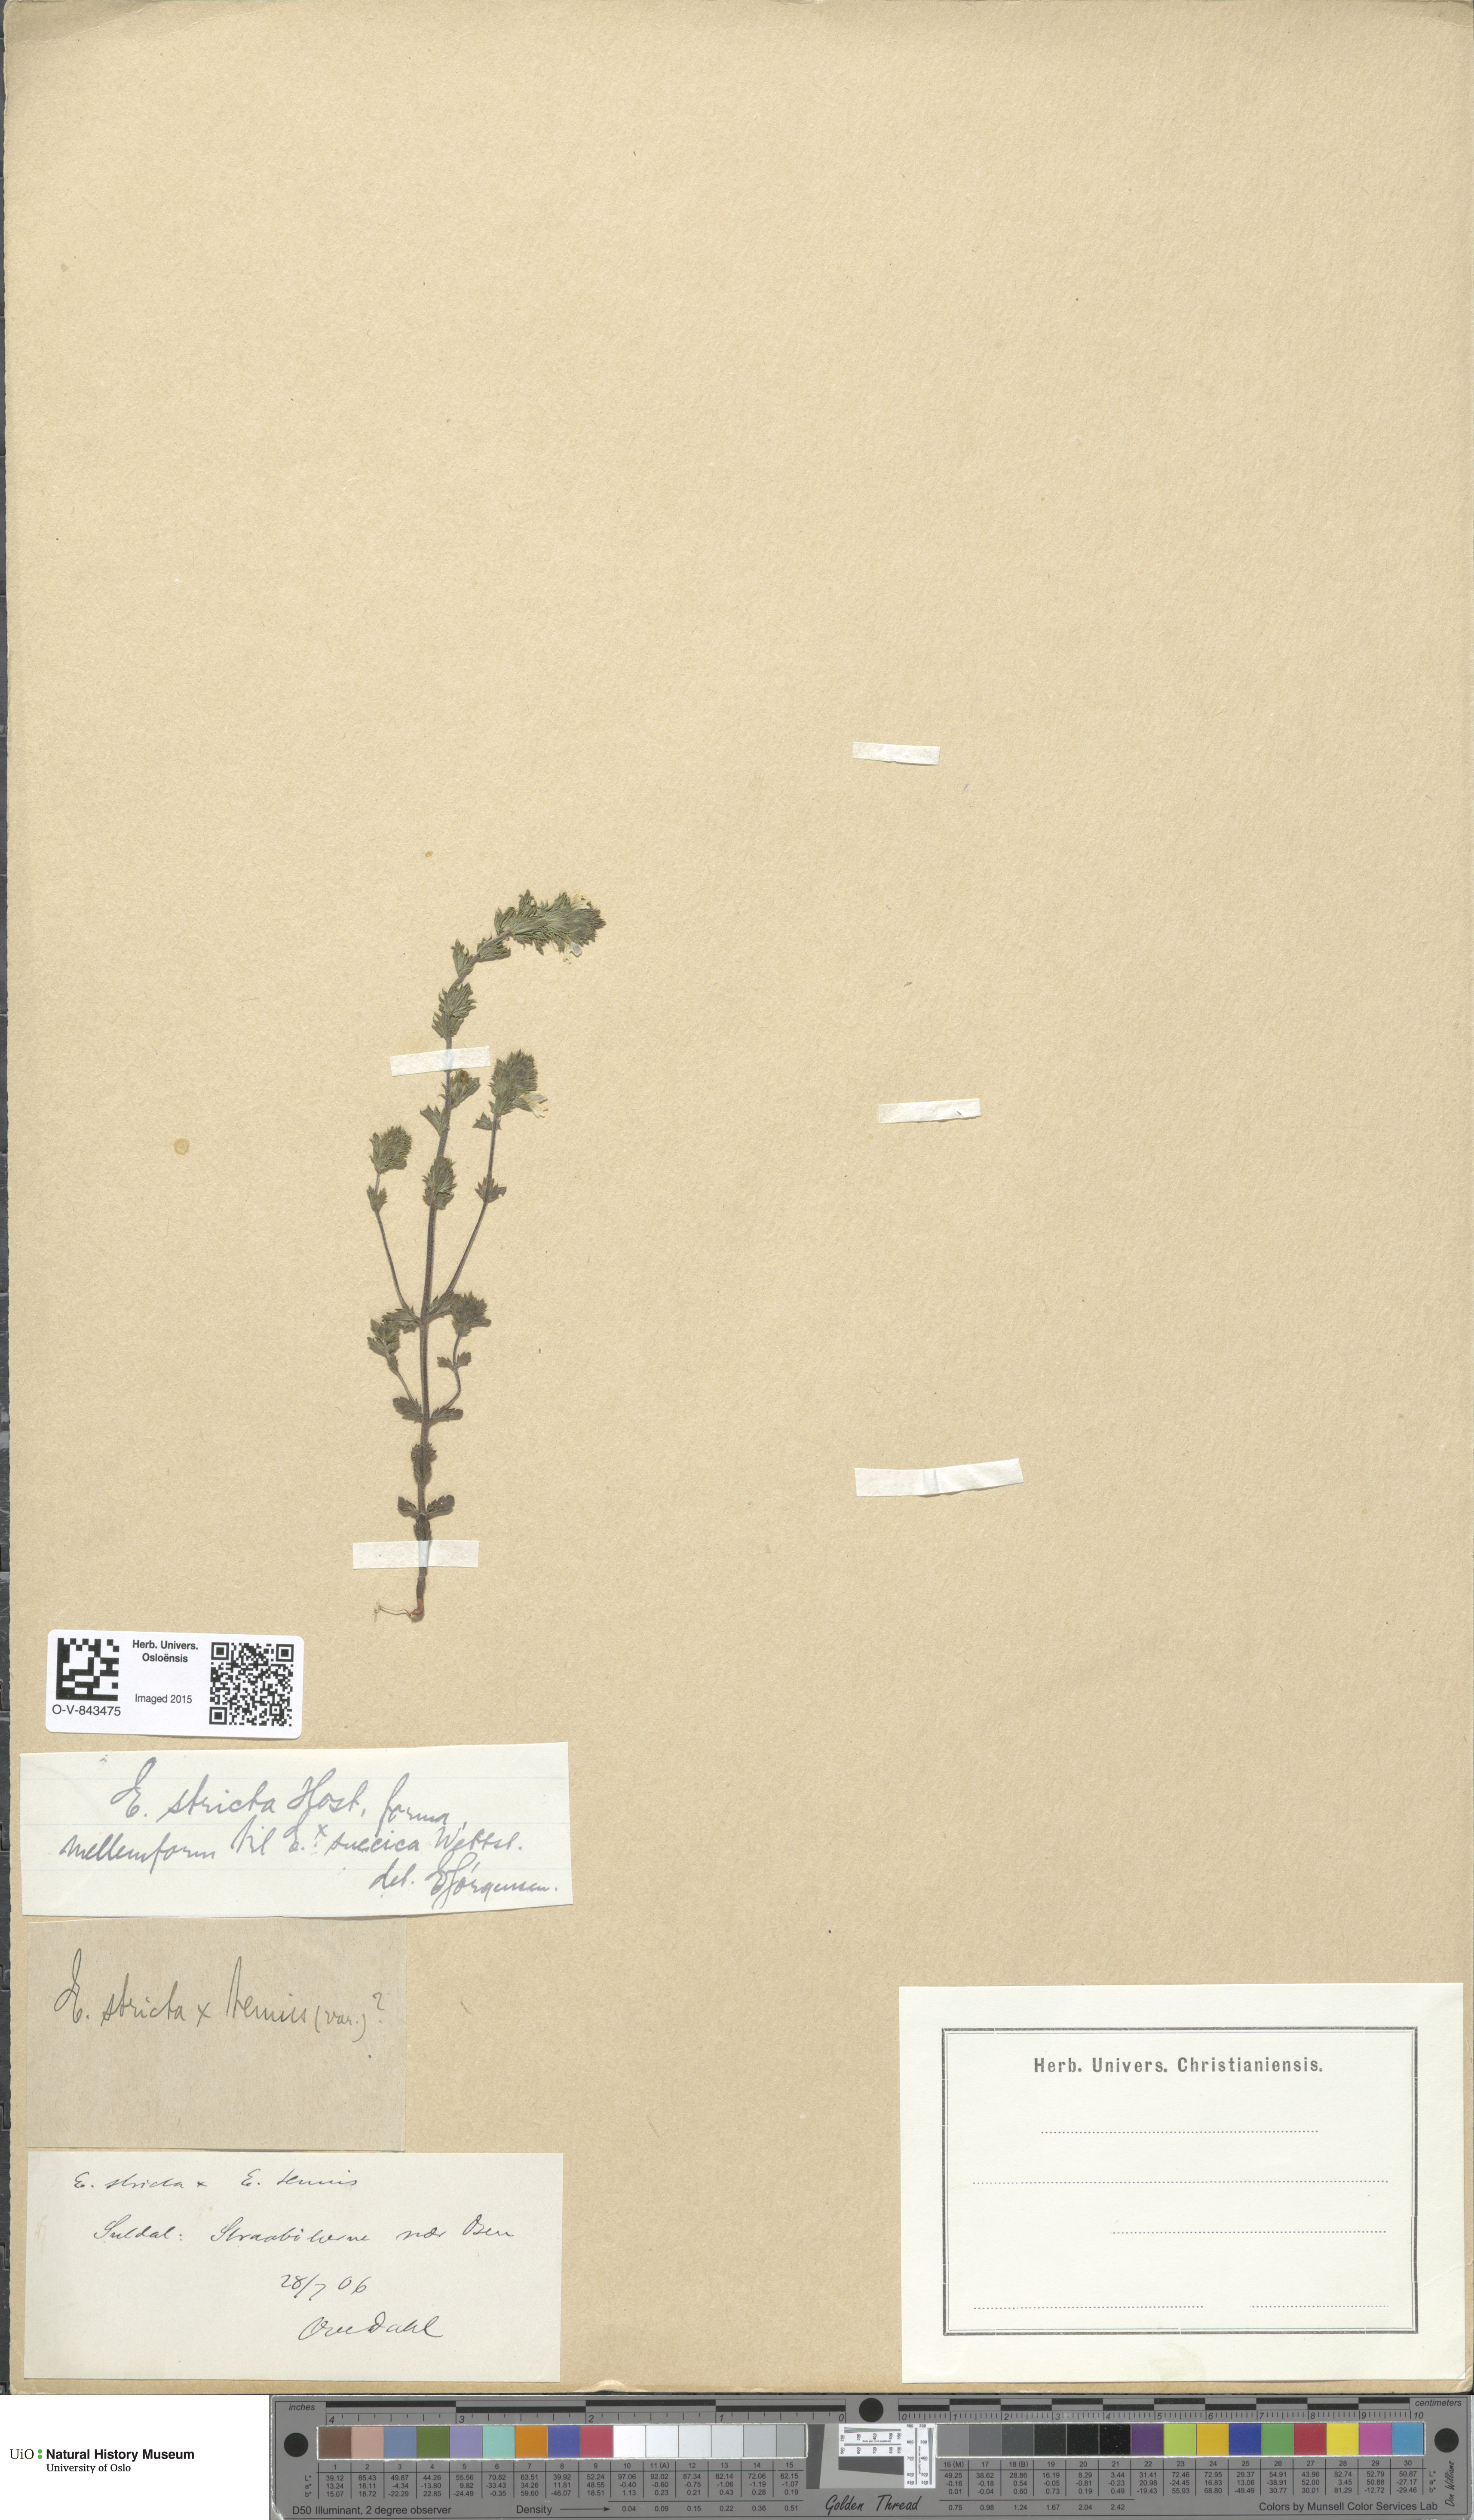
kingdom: Plantae
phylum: Tracheophyta
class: Magnoliopsida
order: Lamiales
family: Orobanchaceae
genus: Euphrasia
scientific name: Euphrasia stricta
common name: Drug eyebright
